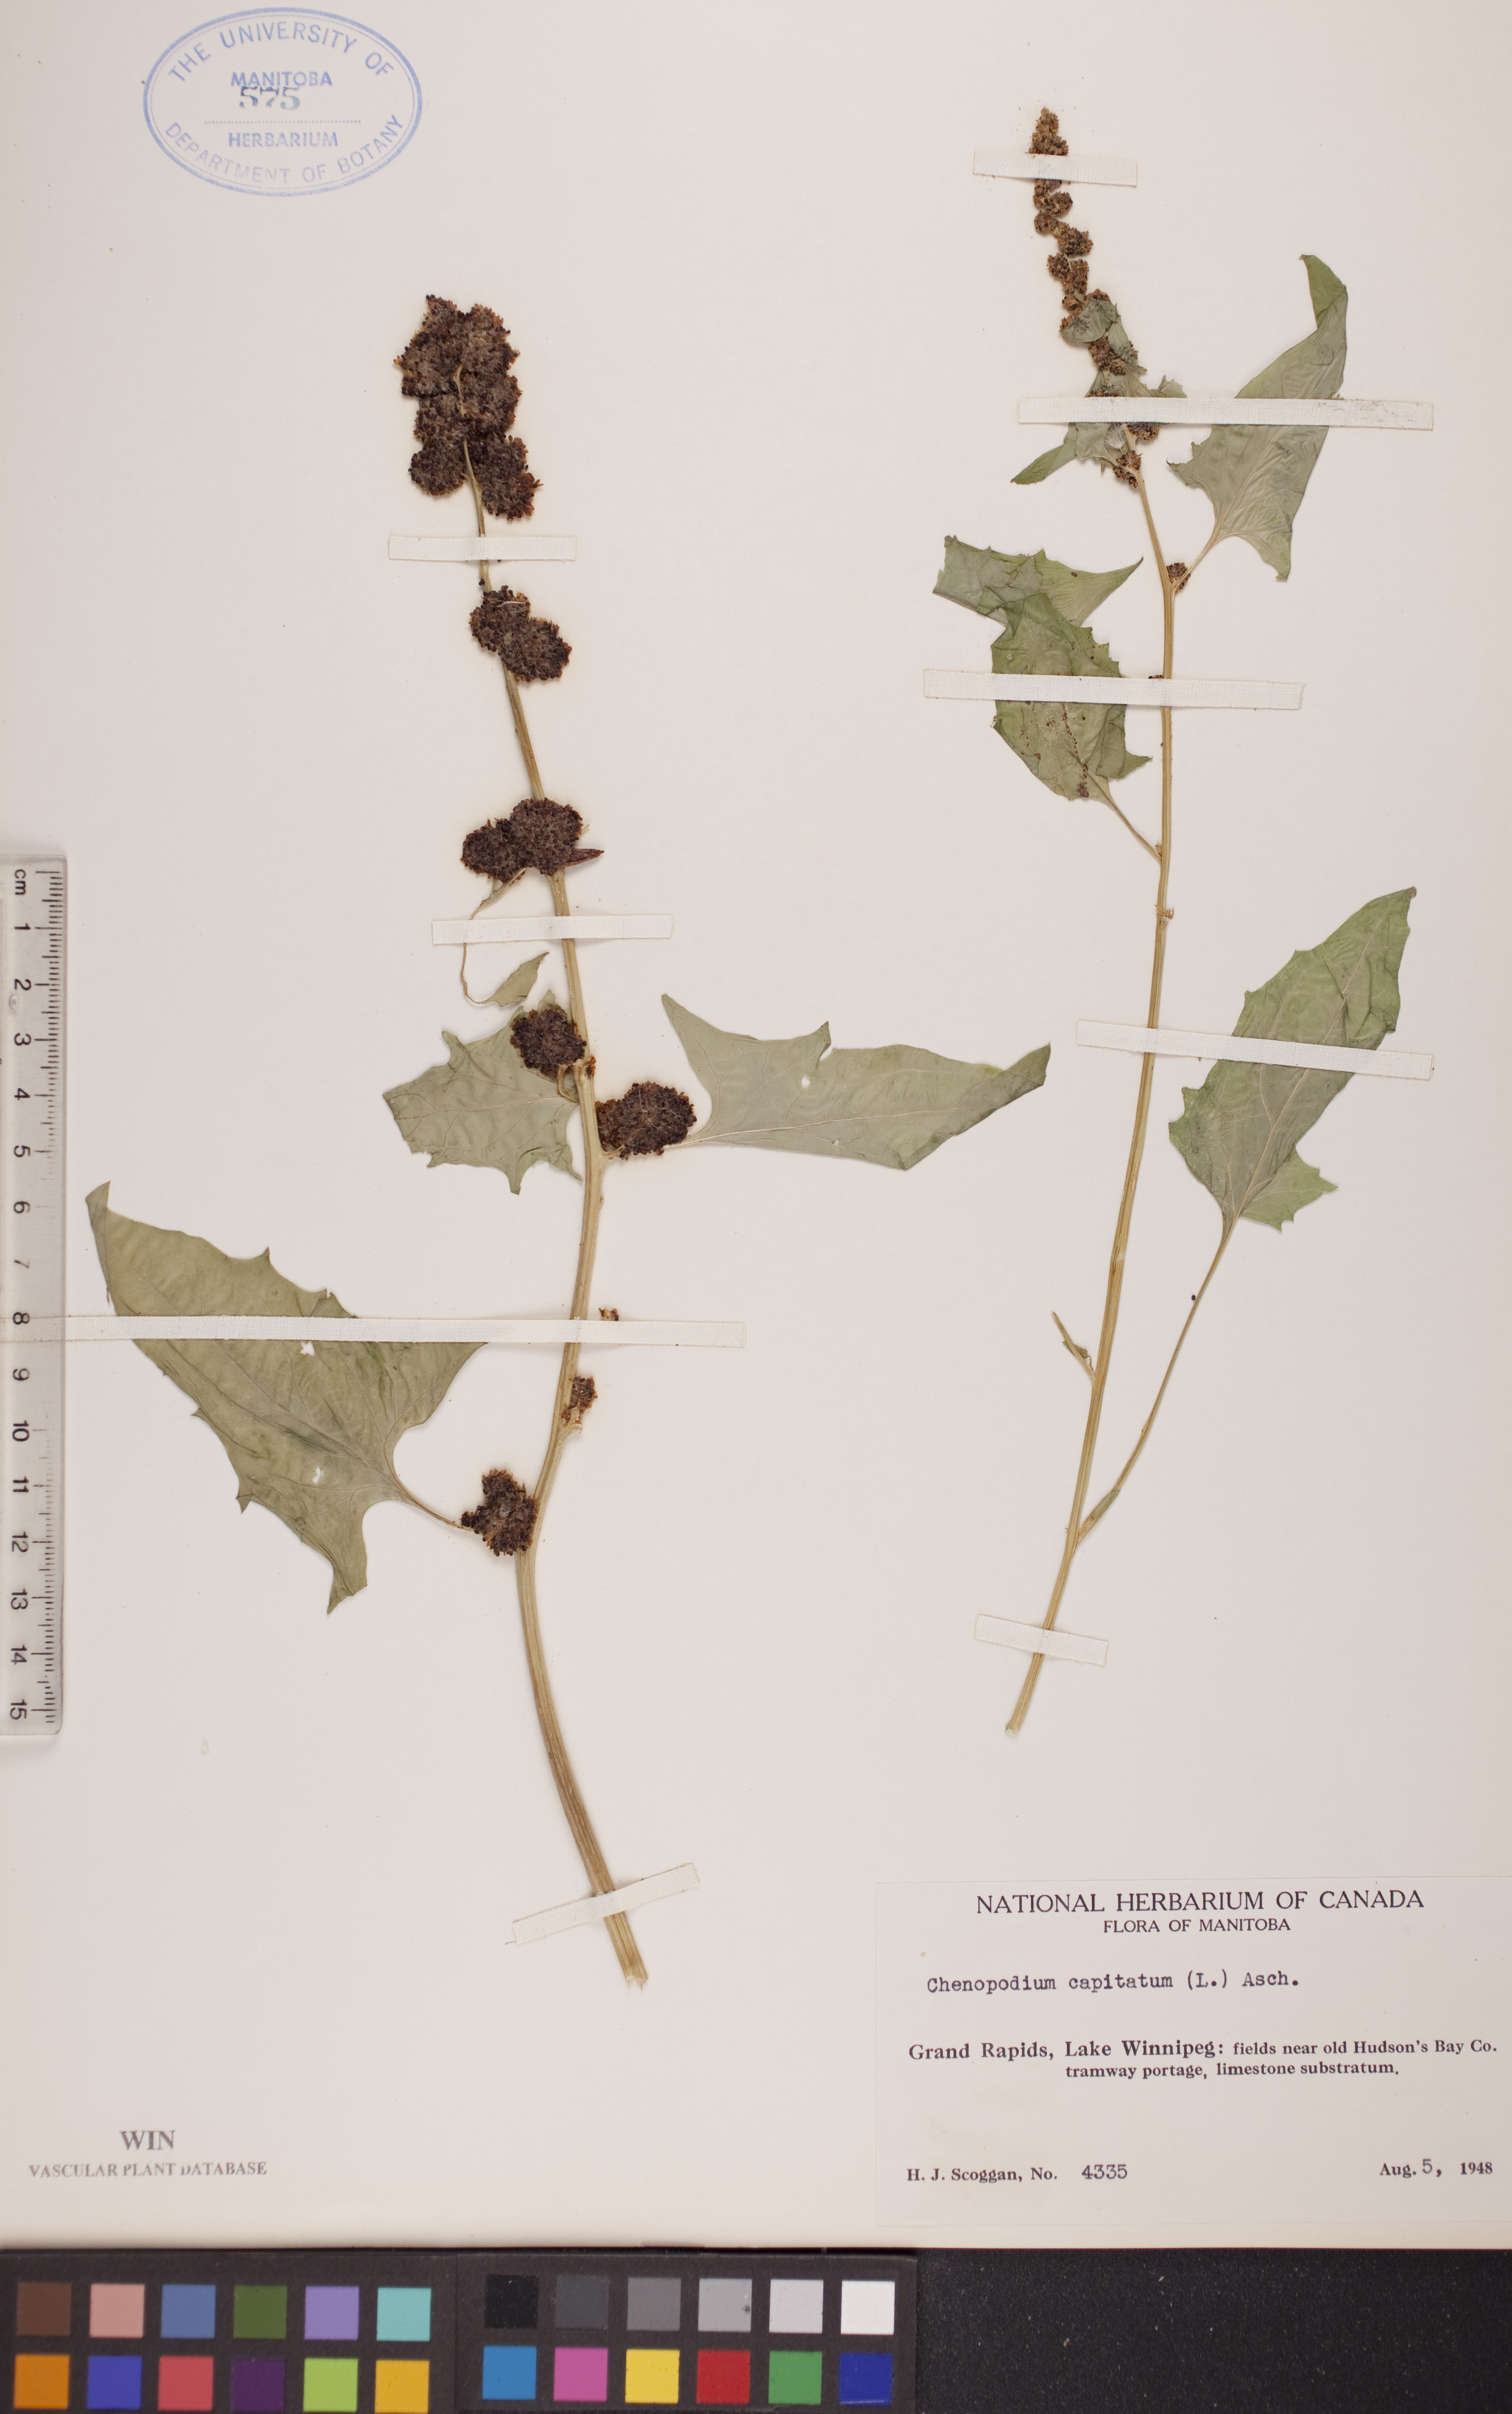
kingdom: Plantae
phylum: Tracheophyta
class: Magnoliopsida
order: Caryophyllales
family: Amaranthaceae
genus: Blitum
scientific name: Blitum capitatum
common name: Strawberry-blight
